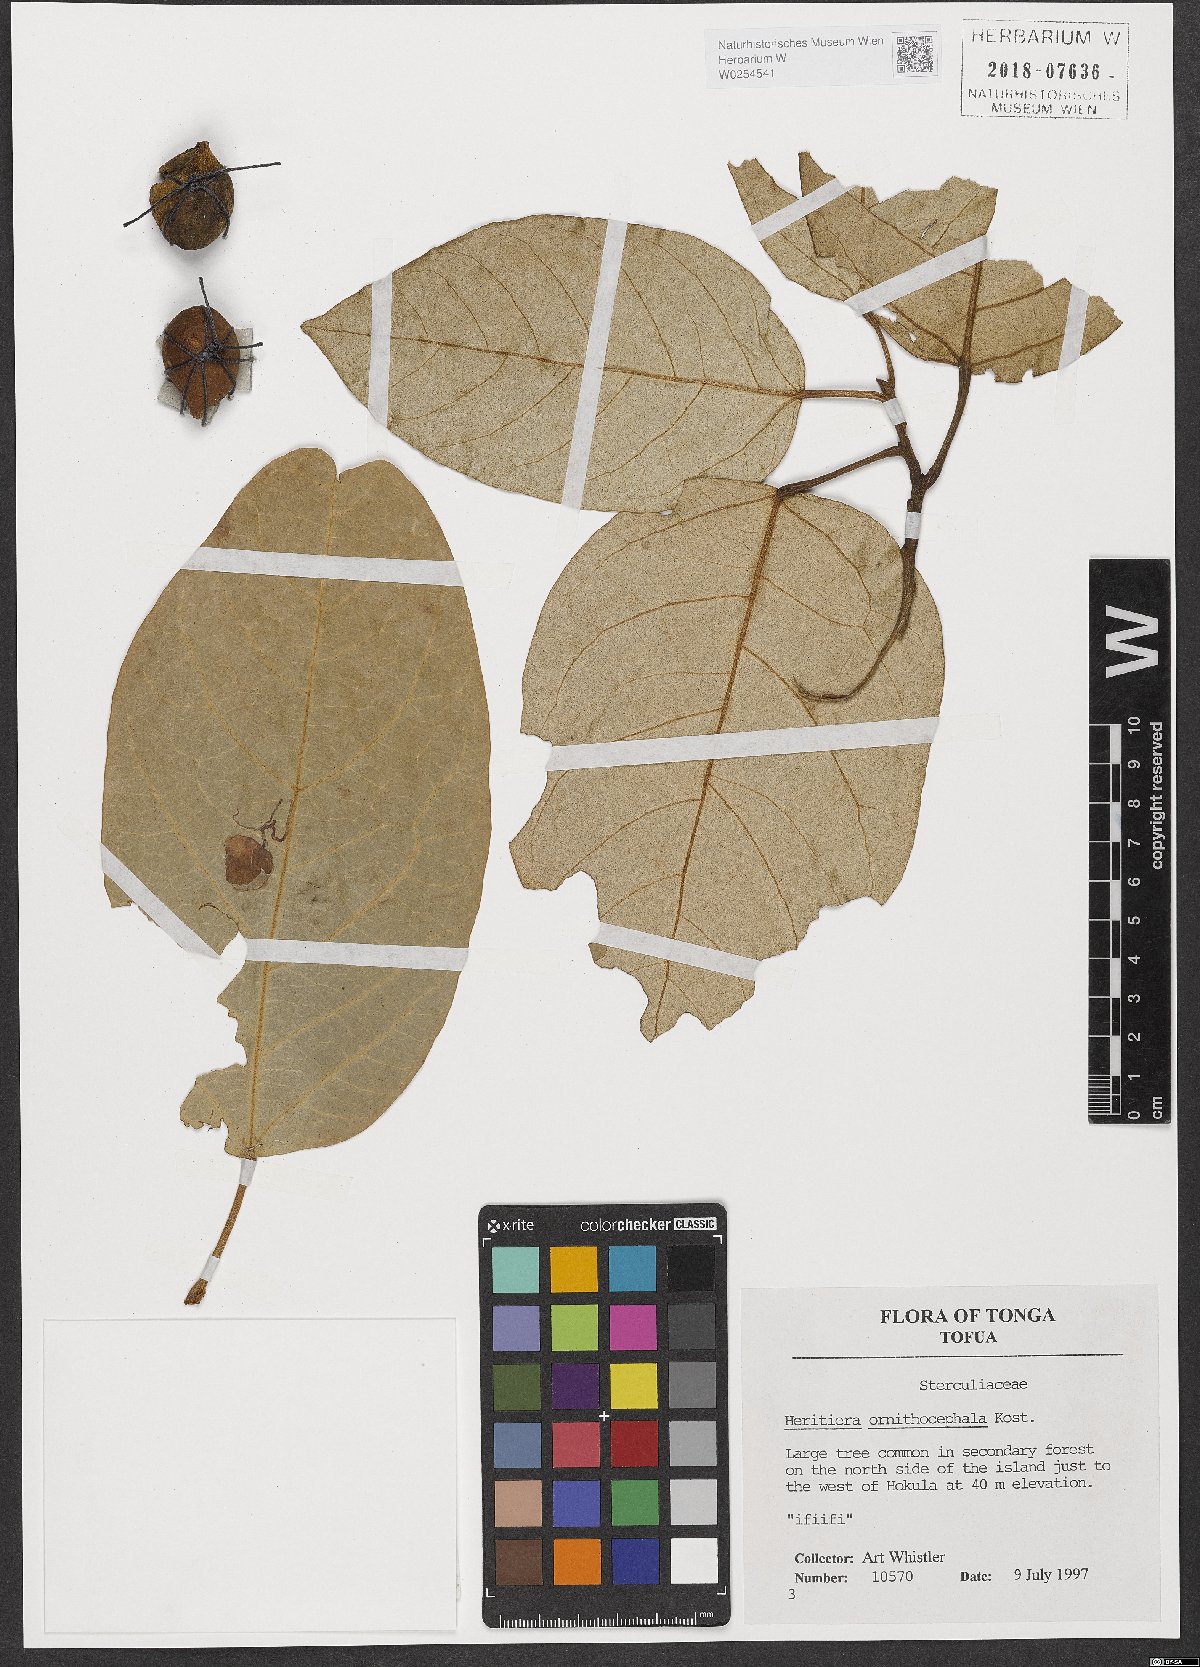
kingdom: Plantae
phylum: Tracheophyta
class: Magnoliopsida
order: Malvales
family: Malvaceae
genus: Heritiera
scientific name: Heritiera ornithocephala
